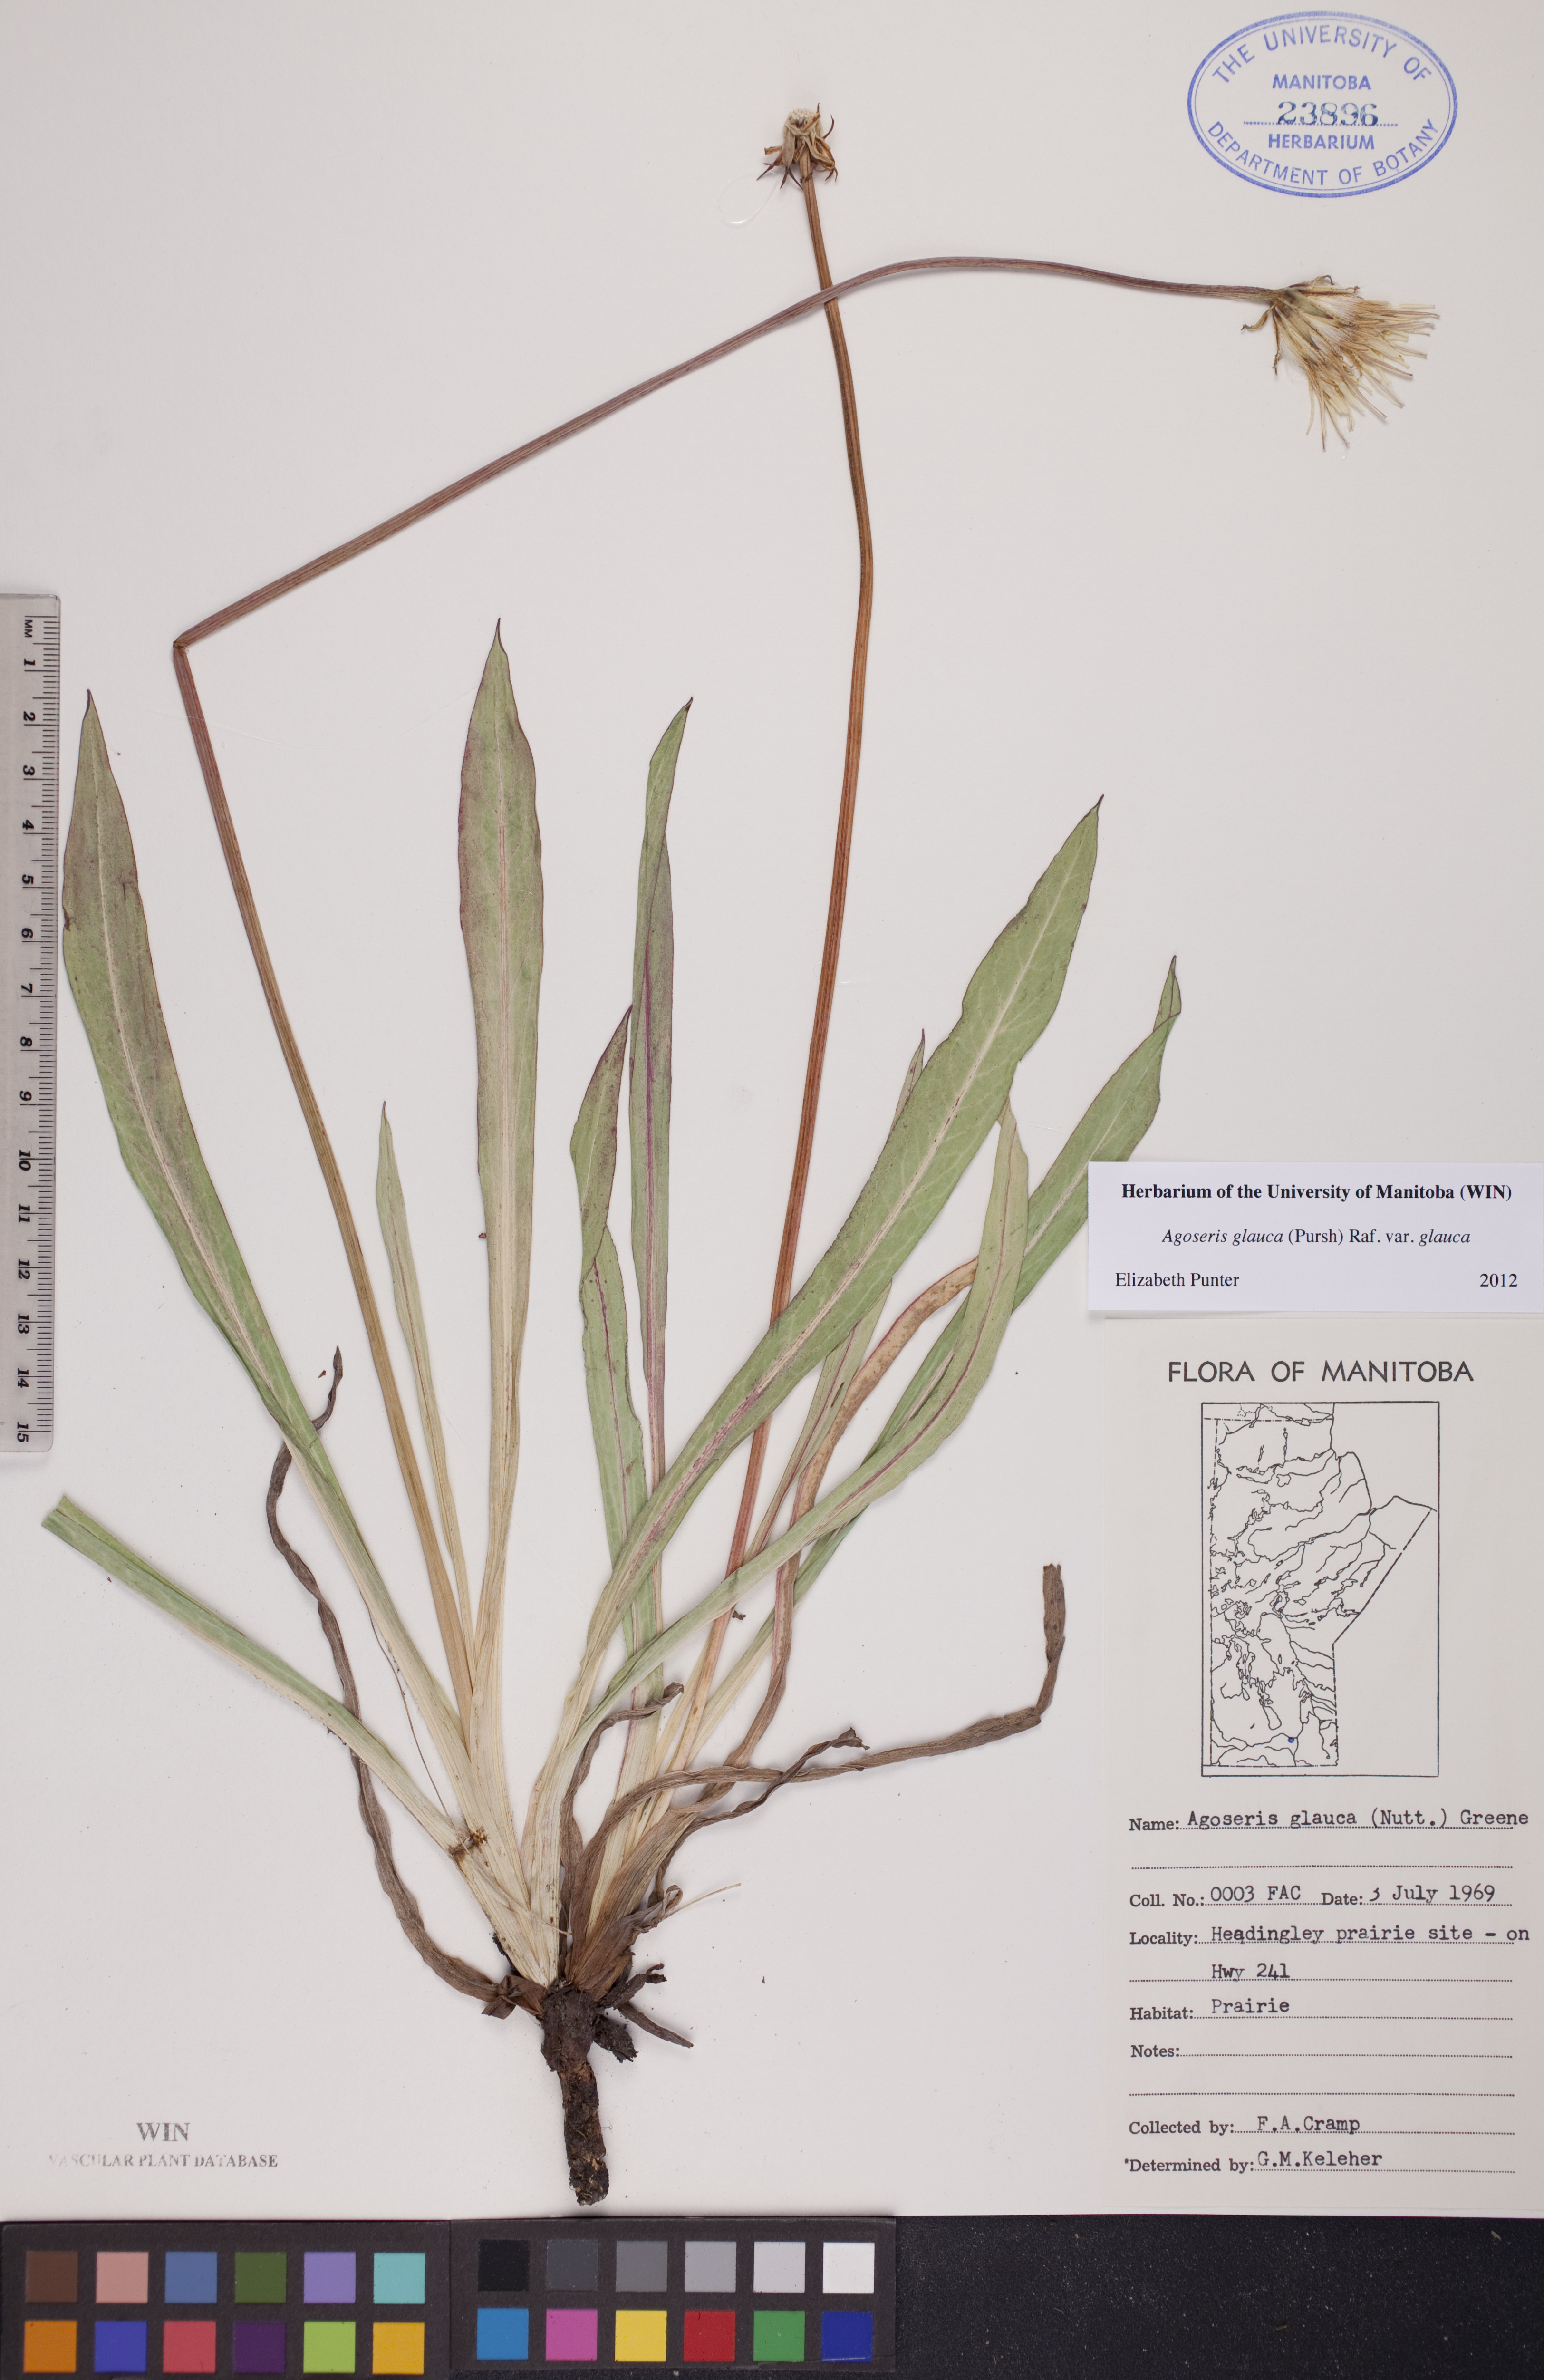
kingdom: Plantae
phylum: Tracheophyta
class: Magnoliopsida
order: Asterales
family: Asteraceae
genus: Agoseris
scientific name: Agoseris glauca
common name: Prairie agoseris
